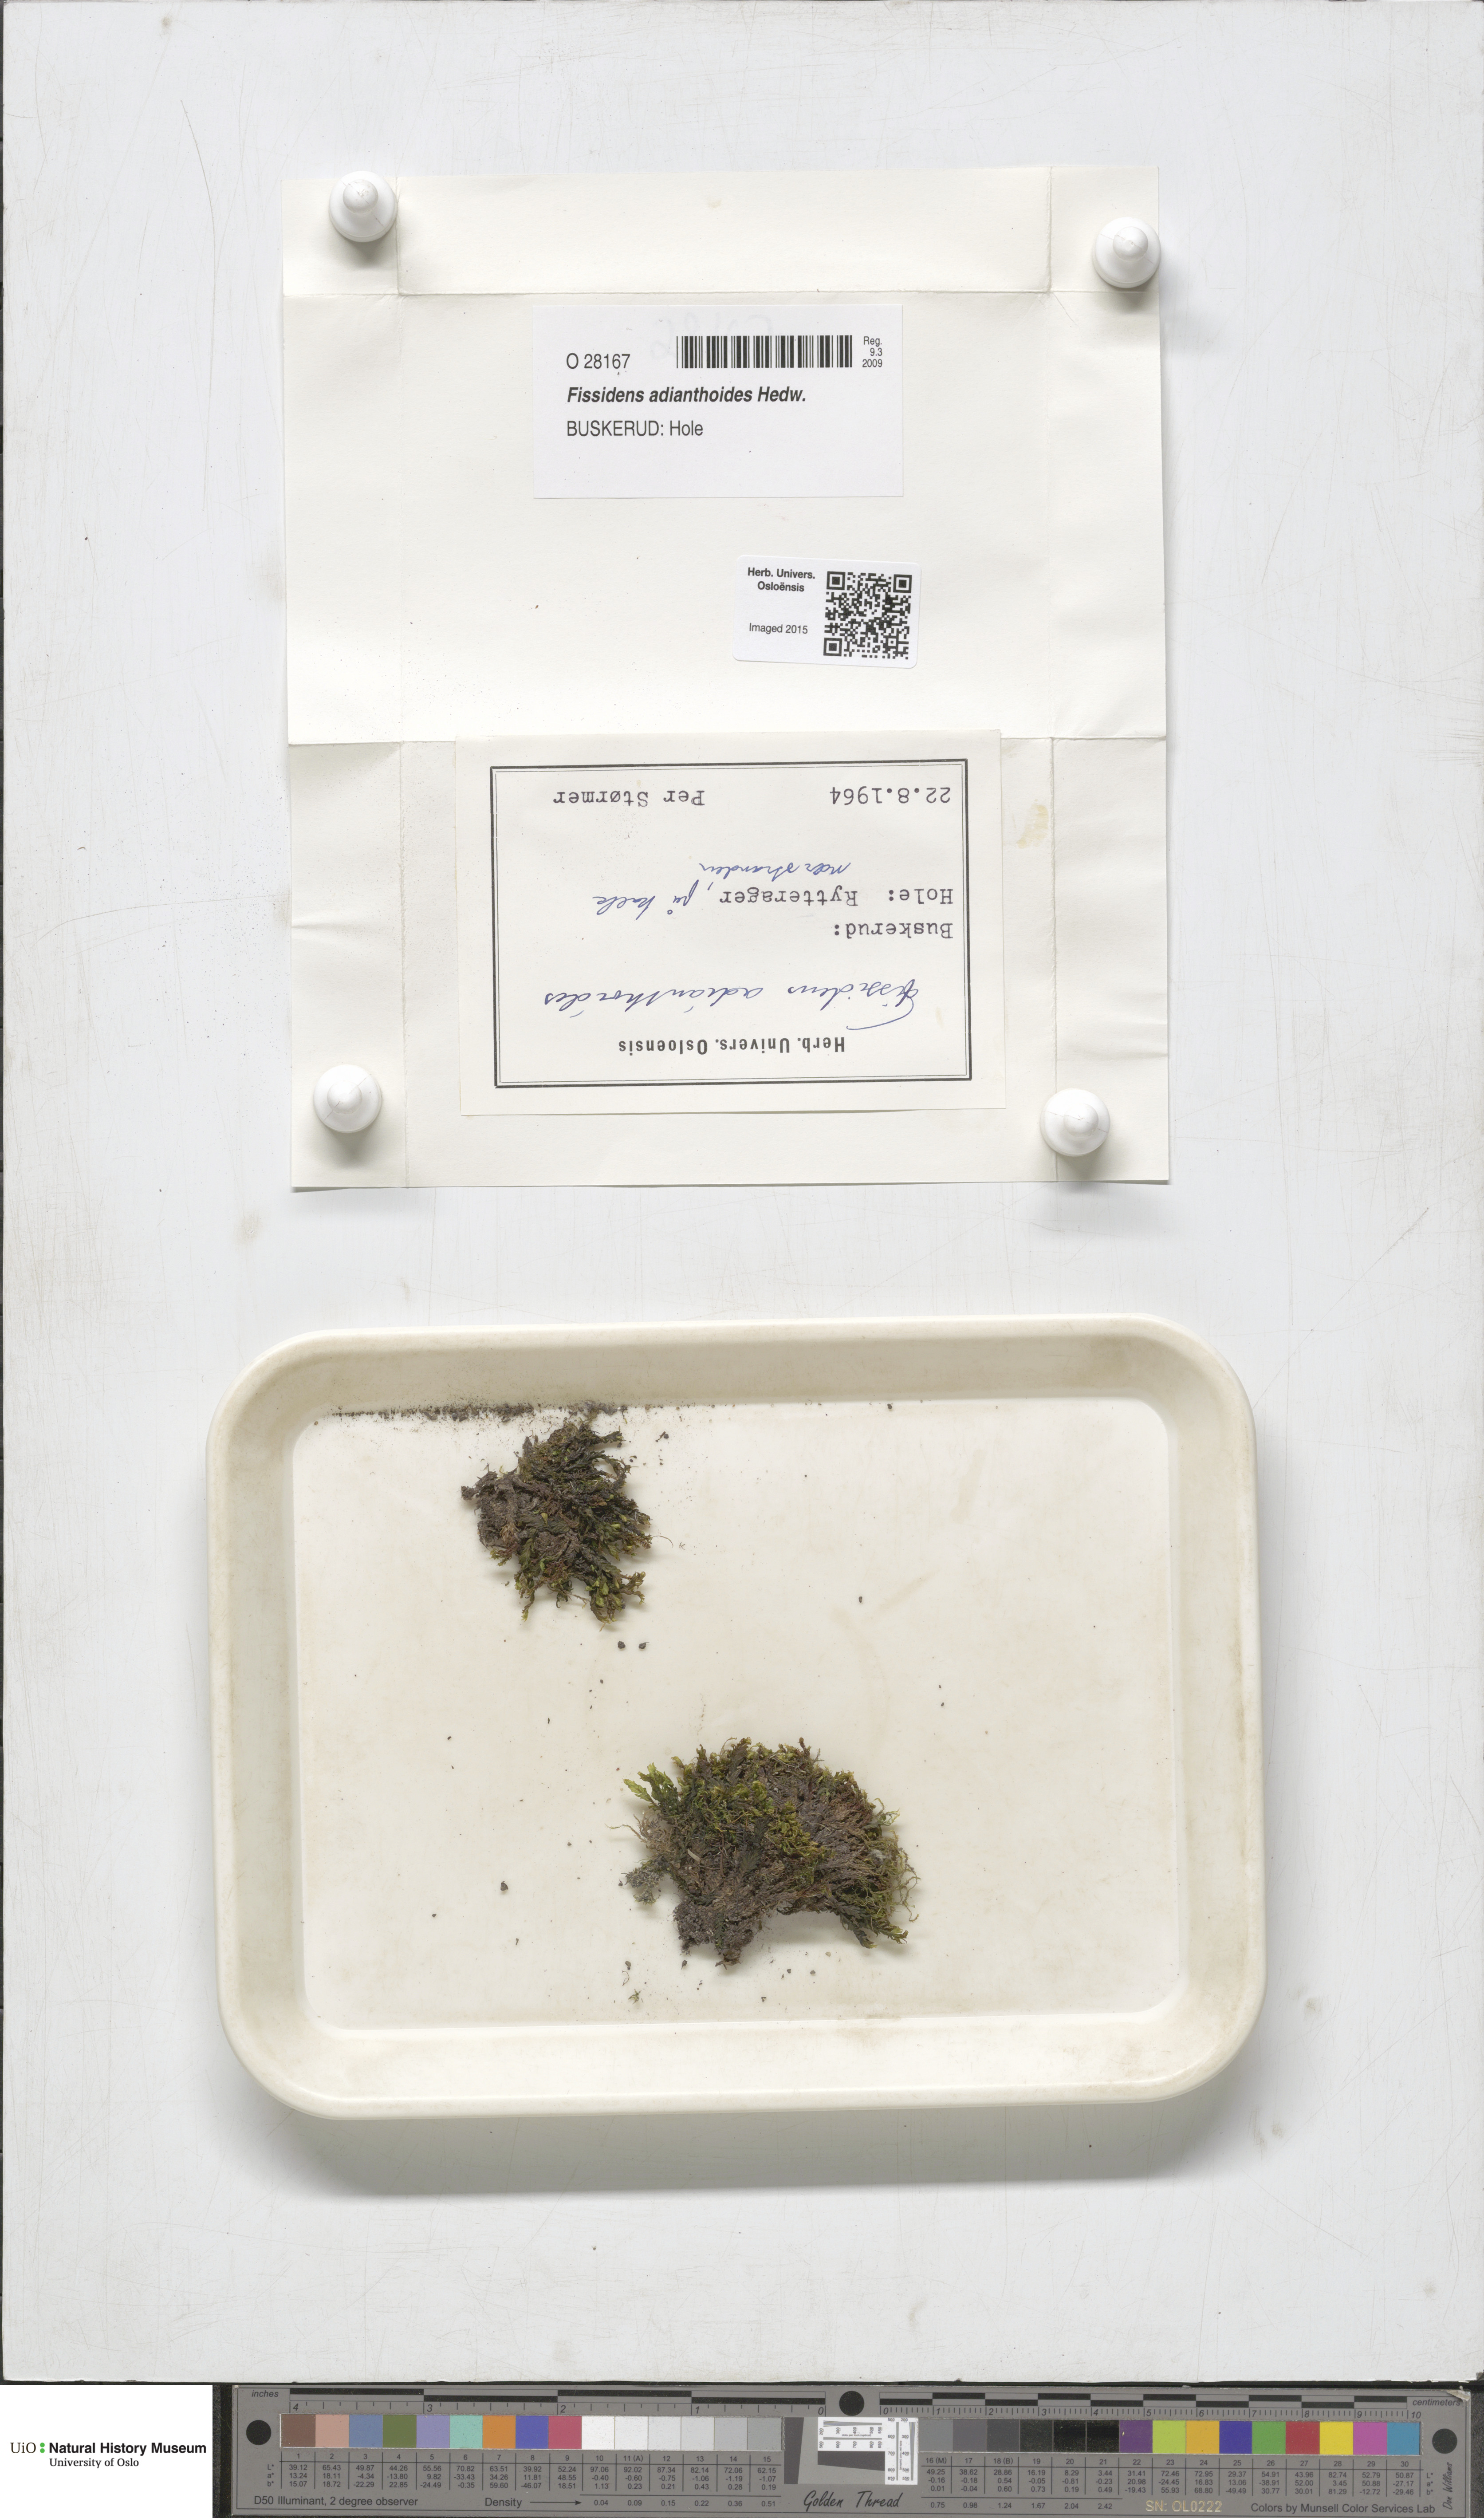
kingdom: Plantae
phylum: Bryophyta
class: Bryopsida
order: Dicranales
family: Fissidentaceae
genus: Fissidens
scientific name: Fissidens adianthoides
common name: Maidenhair pocket moss
